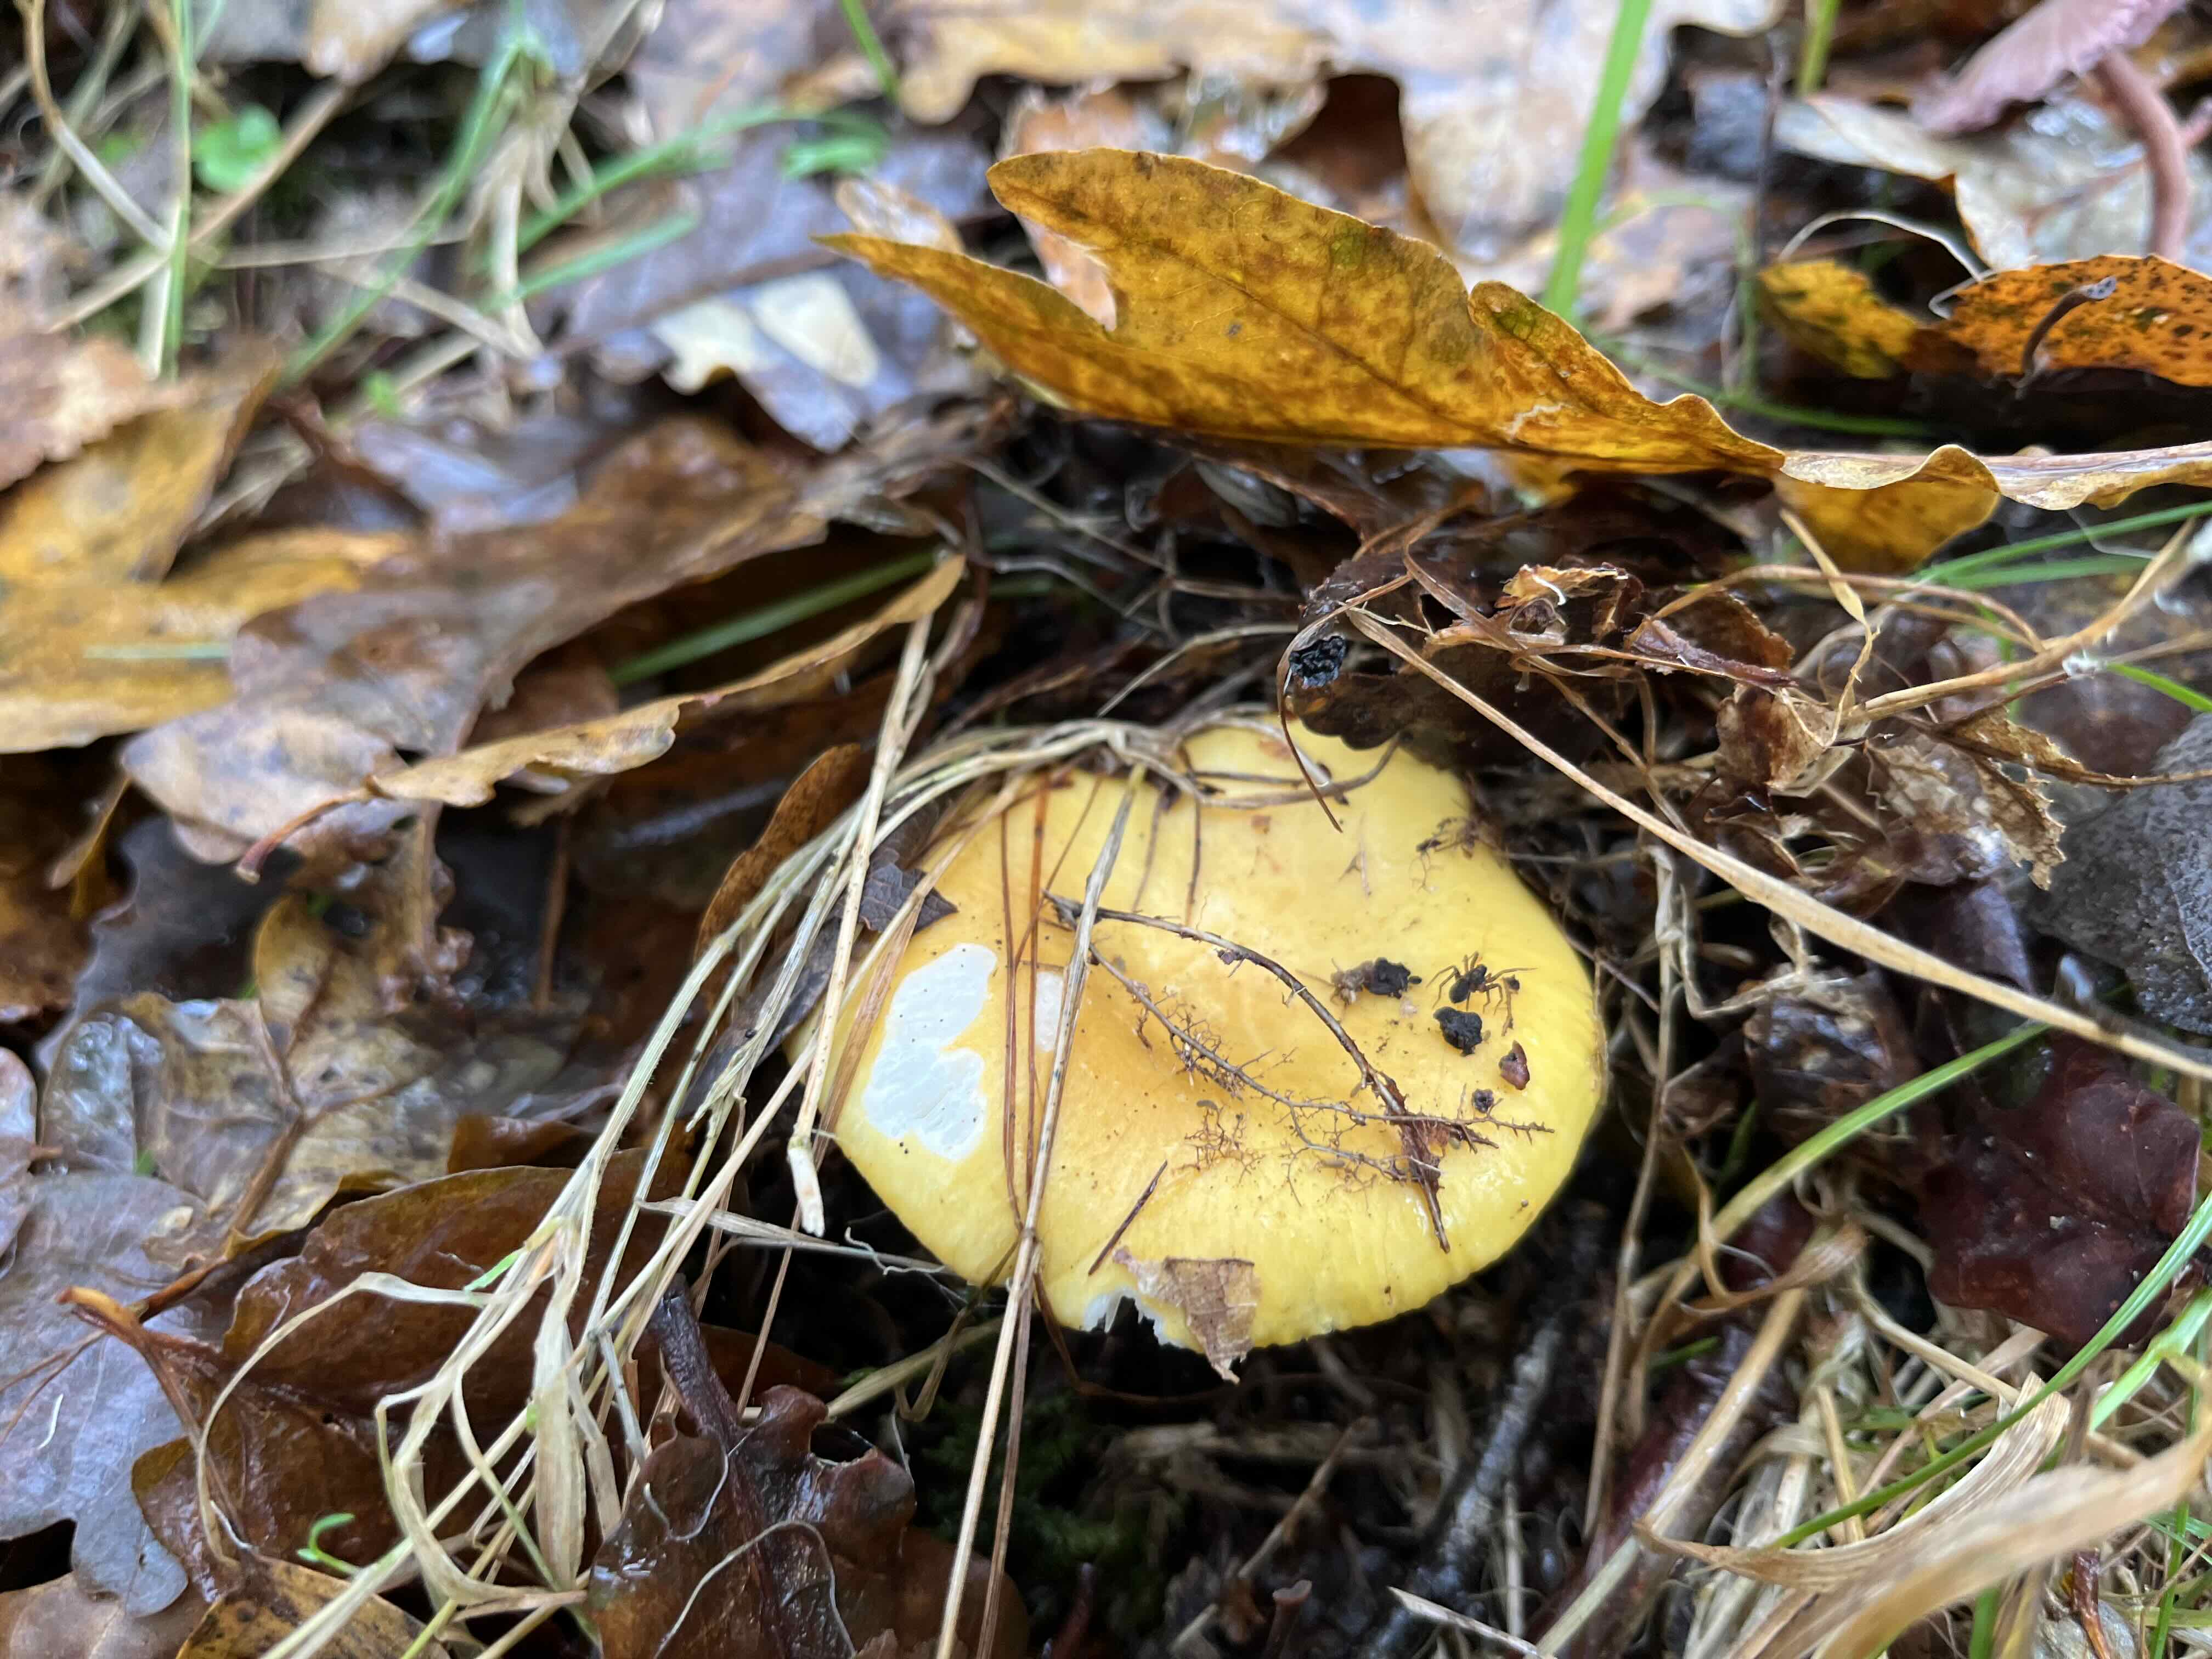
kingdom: Fungi
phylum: Basidiomycota
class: Agaricomycetes
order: Russulales
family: Russulaceae
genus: Russula
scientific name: Russula ochroleuca
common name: okkergul skørhat
